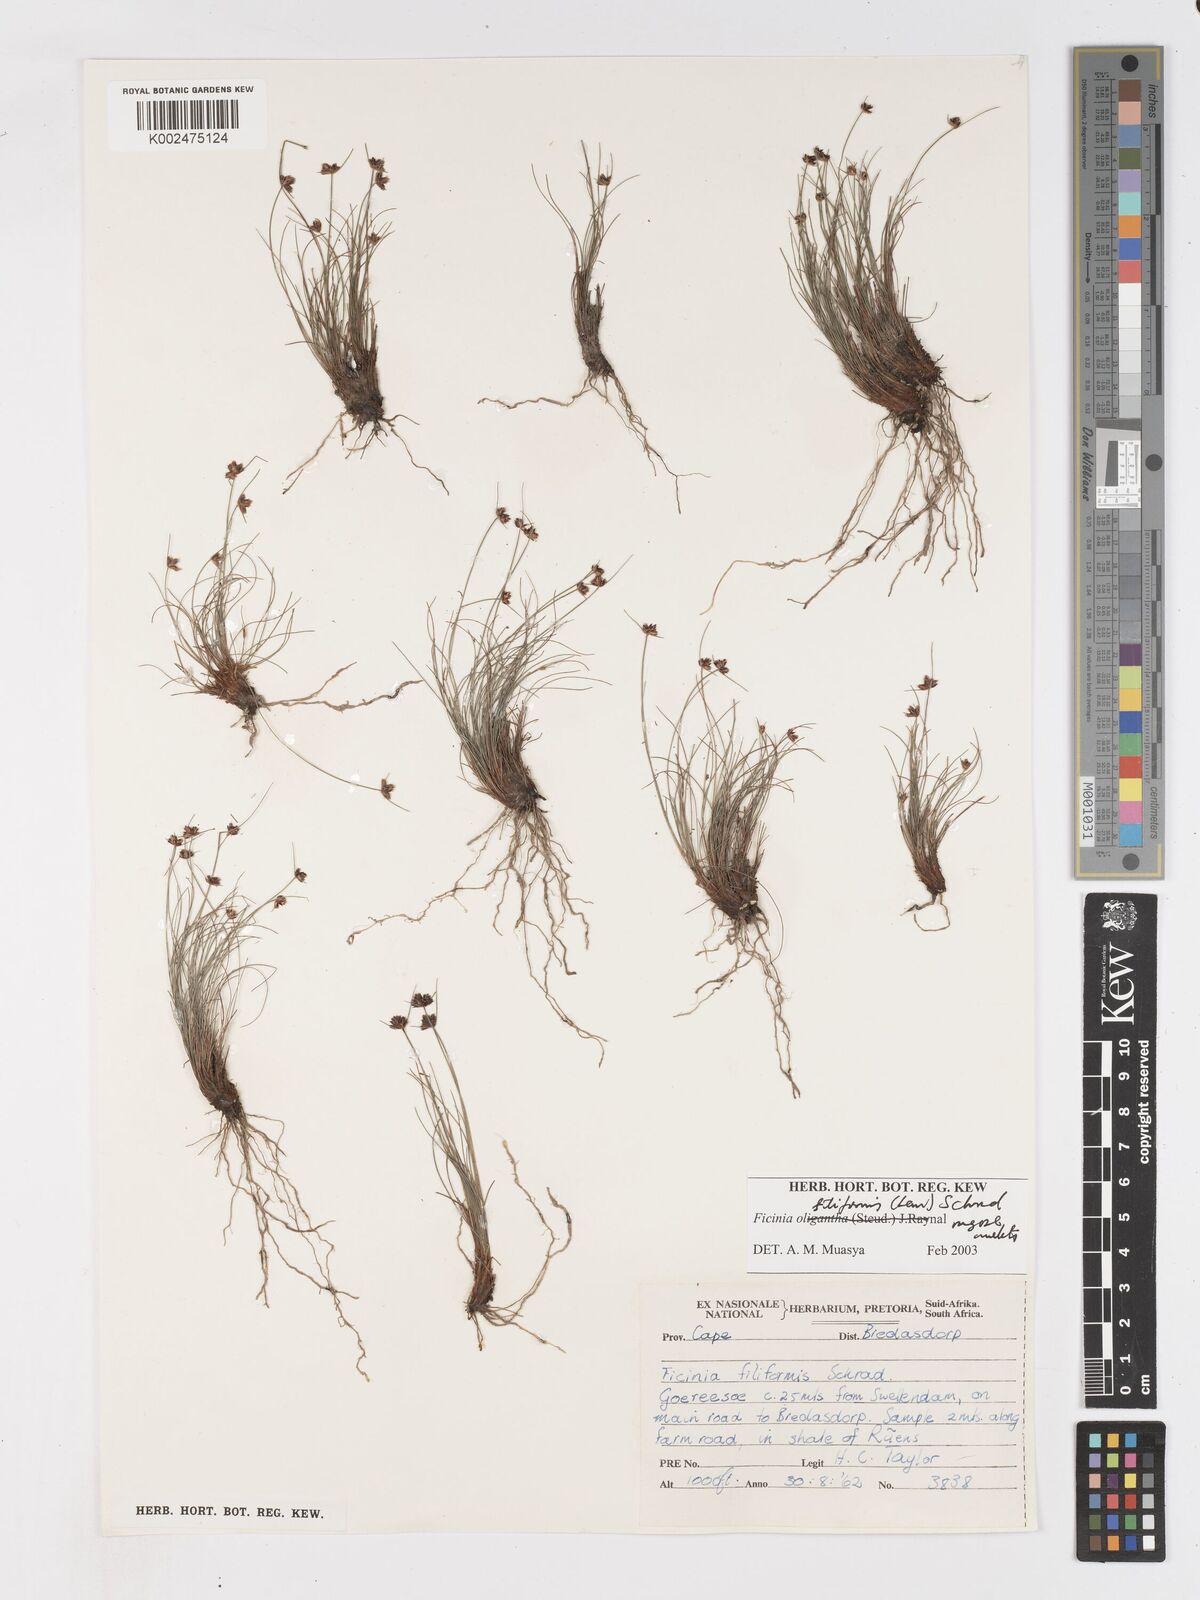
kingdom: Plantae
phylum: Tracheophyta
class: Liliopsida
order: Poales
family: Cyperaceae
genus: Ficinia
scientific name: Ficinia filiformis
